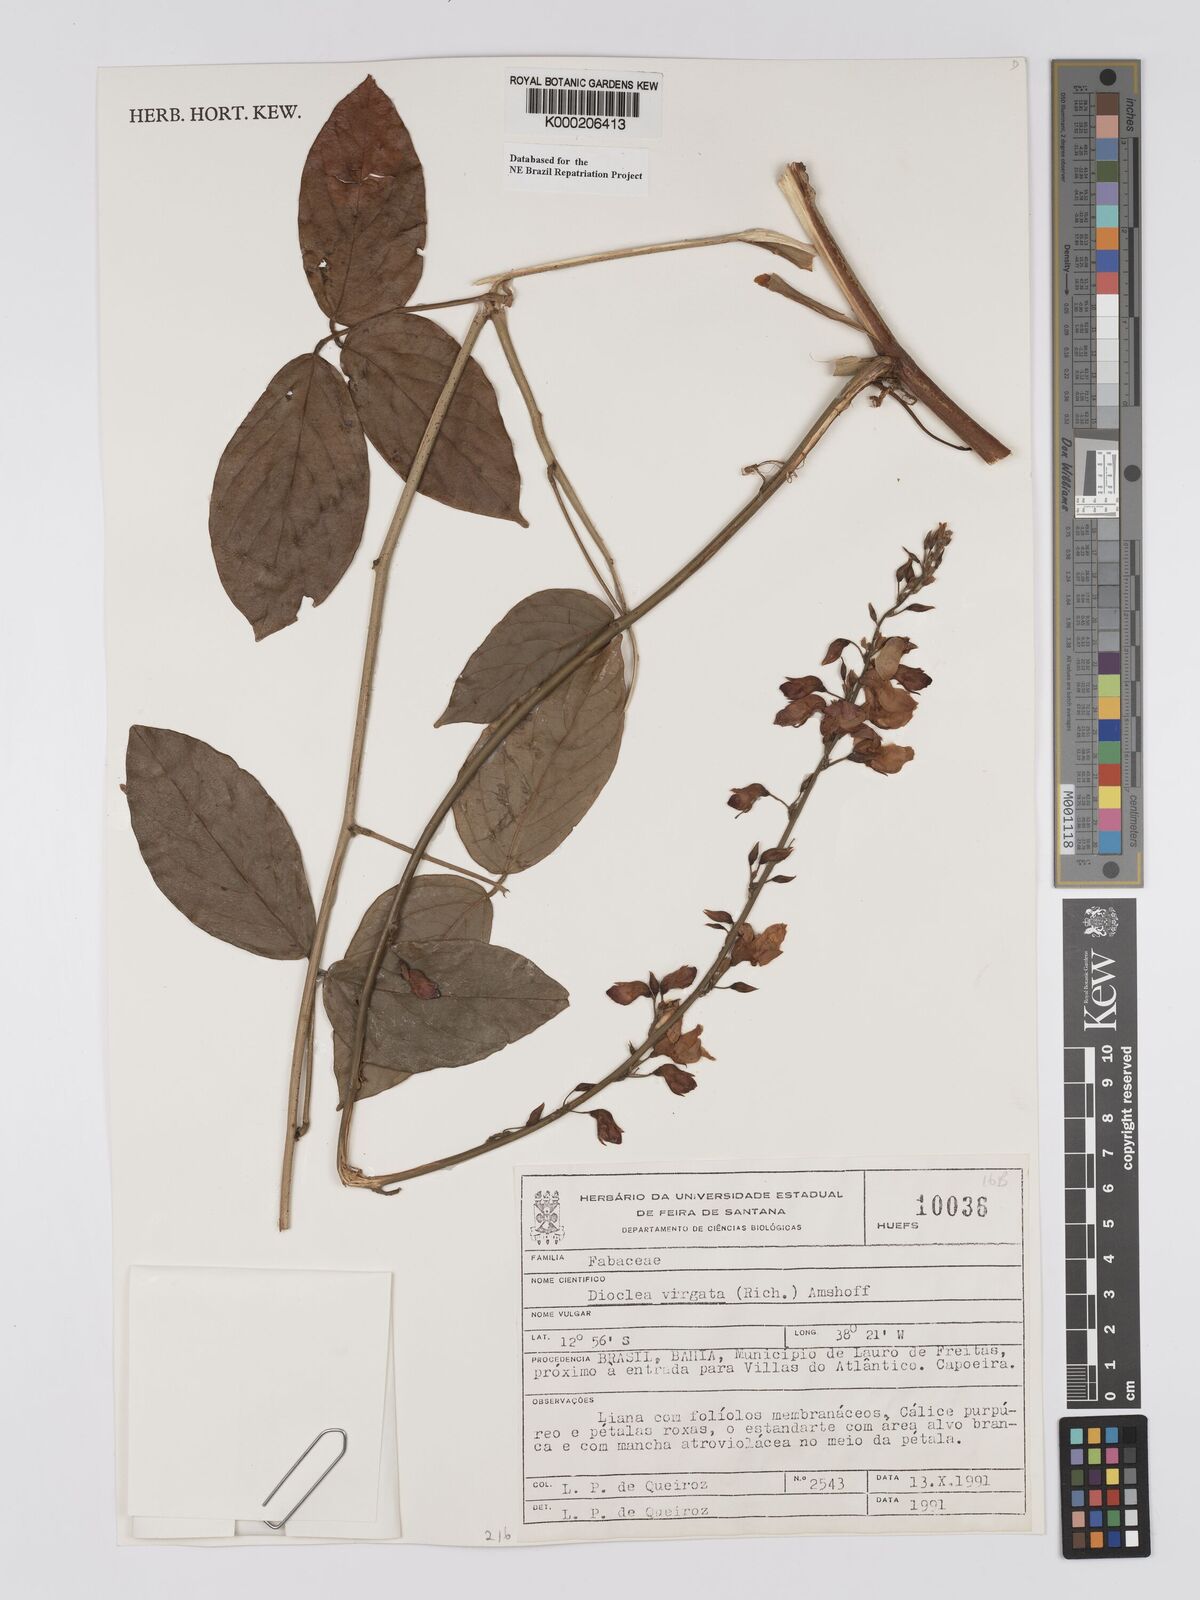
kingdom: Plantae
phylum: Tracheophyta
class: Magnoliopsida
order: Fabales
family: Fabaceae
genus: Dioclea
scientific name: Dioclea virgata
